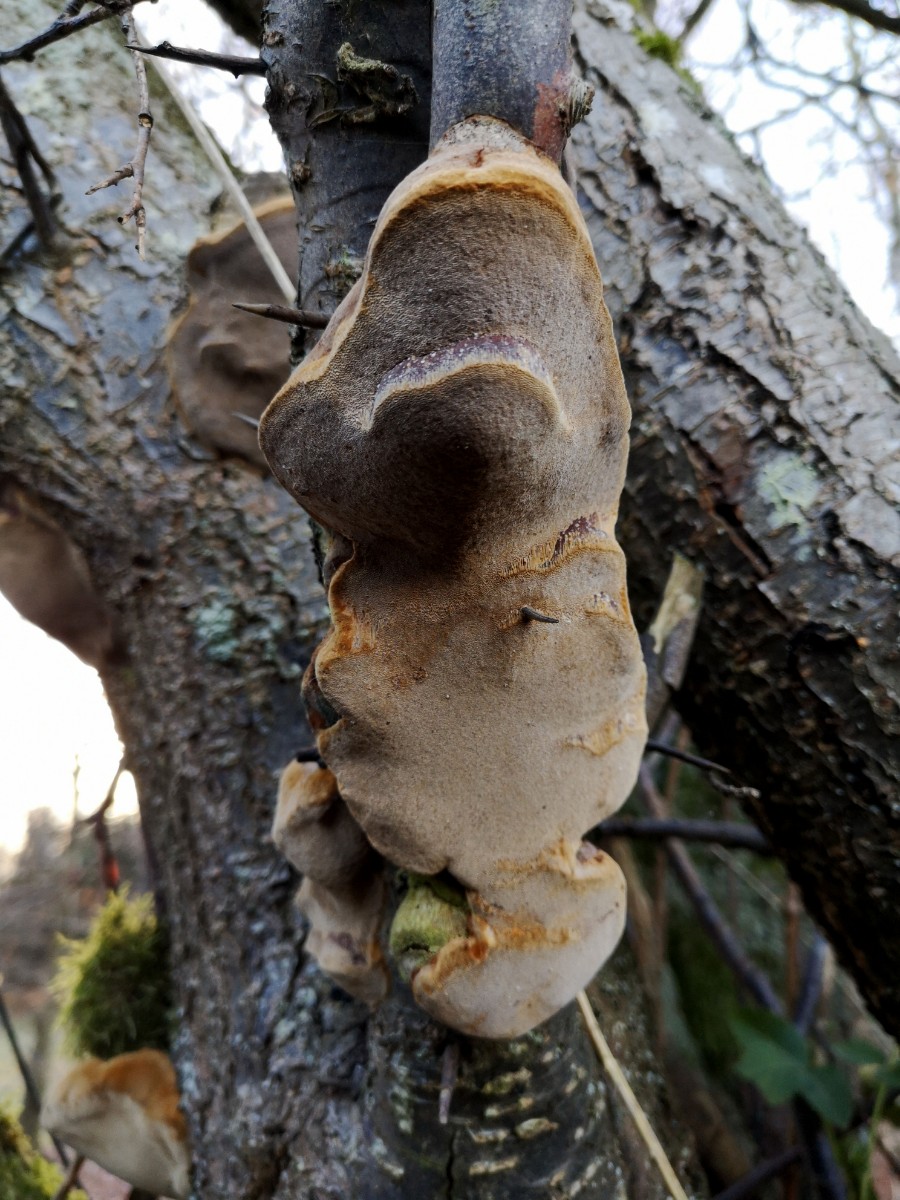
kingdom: Fungi
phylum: Basidiomycota
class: Agaricomycetes
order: Hymenochaetales
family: Hymenochaetaceae
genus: Phellinus
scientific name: Phellinus pomaceus
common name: blomme-ildporesvamp
